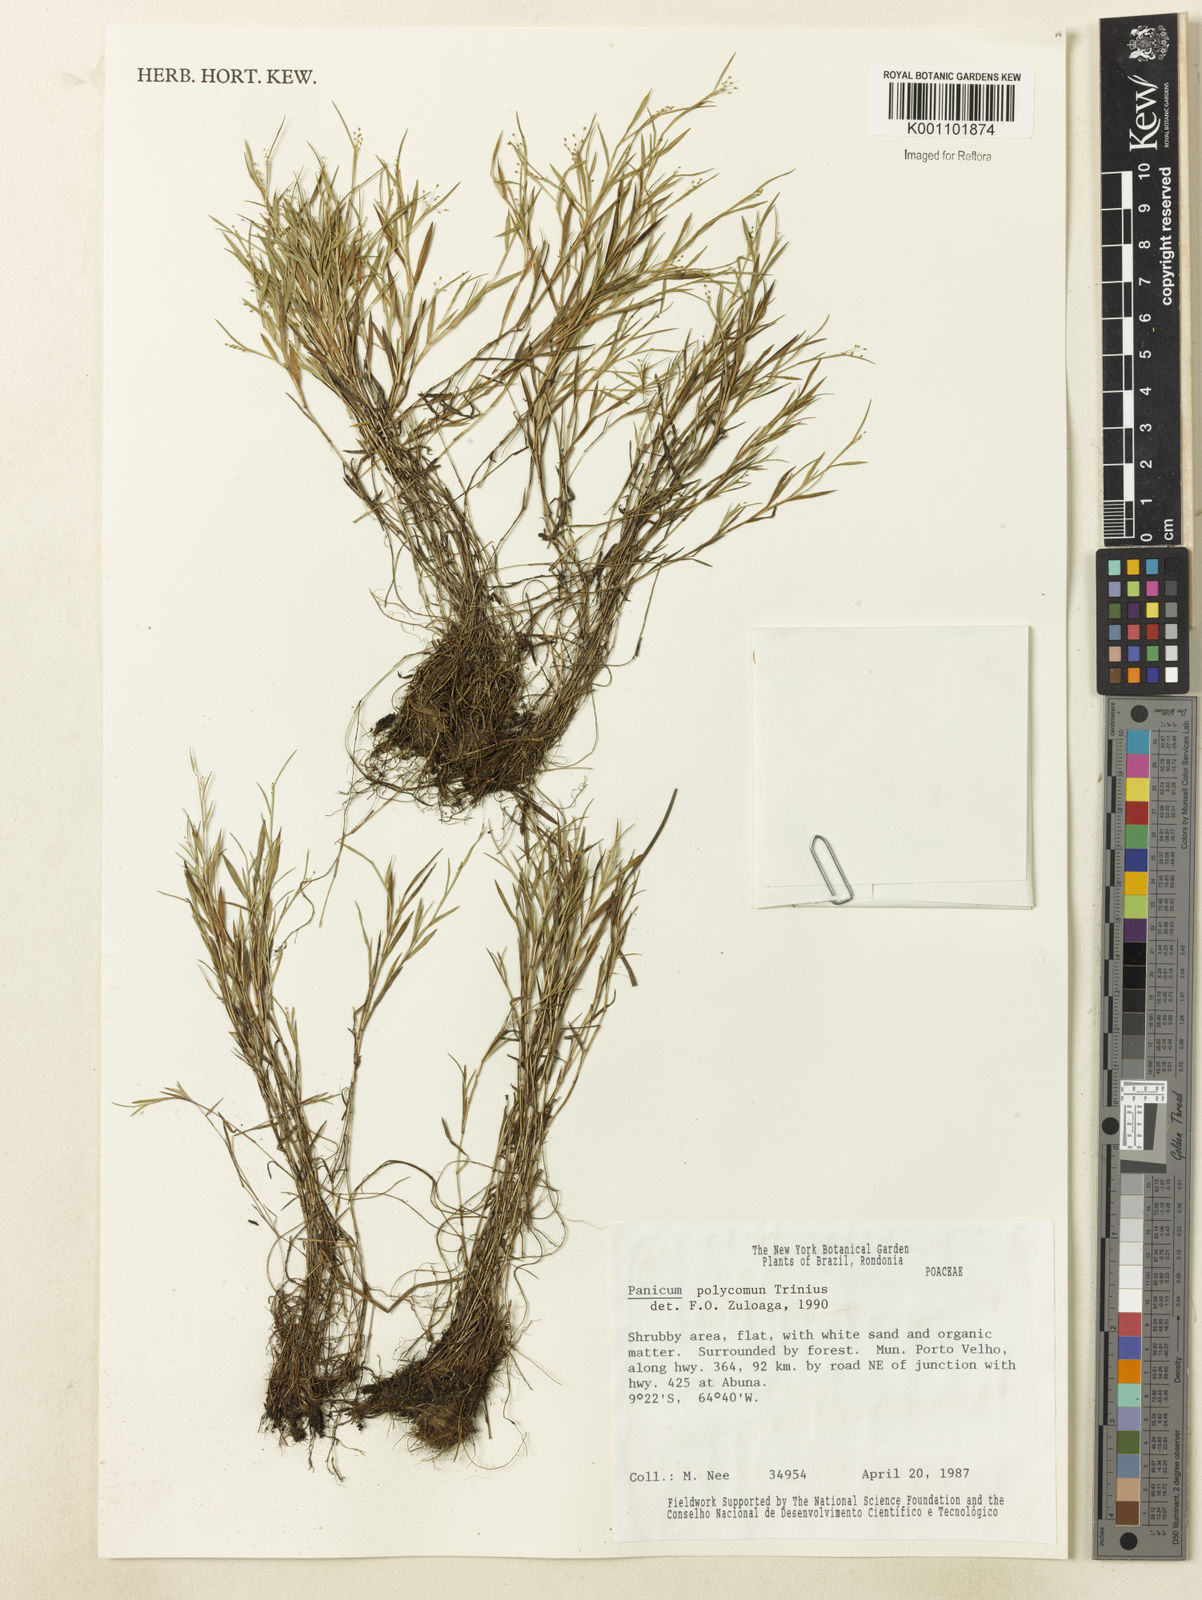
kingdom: Plantae
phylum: Tracheophyta
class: Liliopsida
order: Poales
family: Poaceae
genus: Trichanthecium
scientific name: Trichanthecium polycomum
